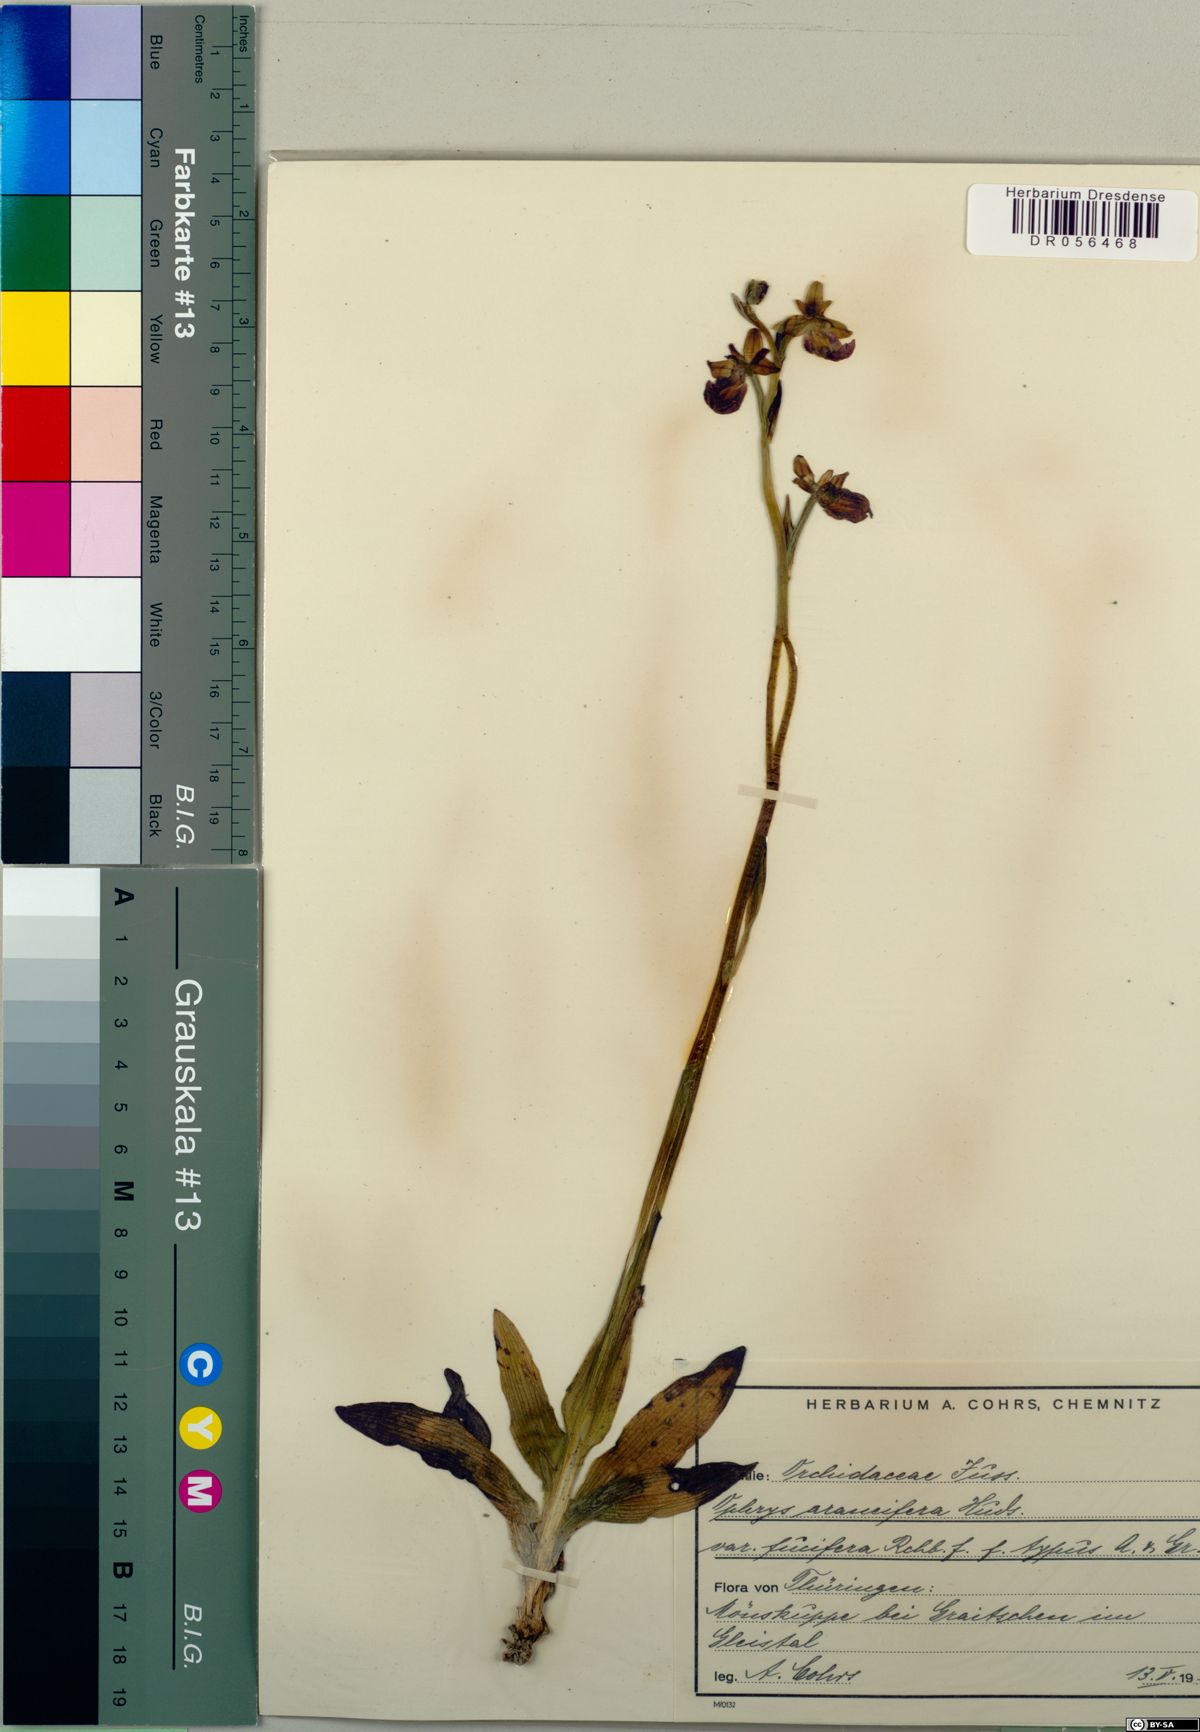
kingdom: Plantae
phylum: Tracheophyta
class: Liliopsida
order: Asparagales
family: Orchidaceae
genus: Ophrys
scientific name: Ophrys sphegodes
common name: Early spider-orchid
